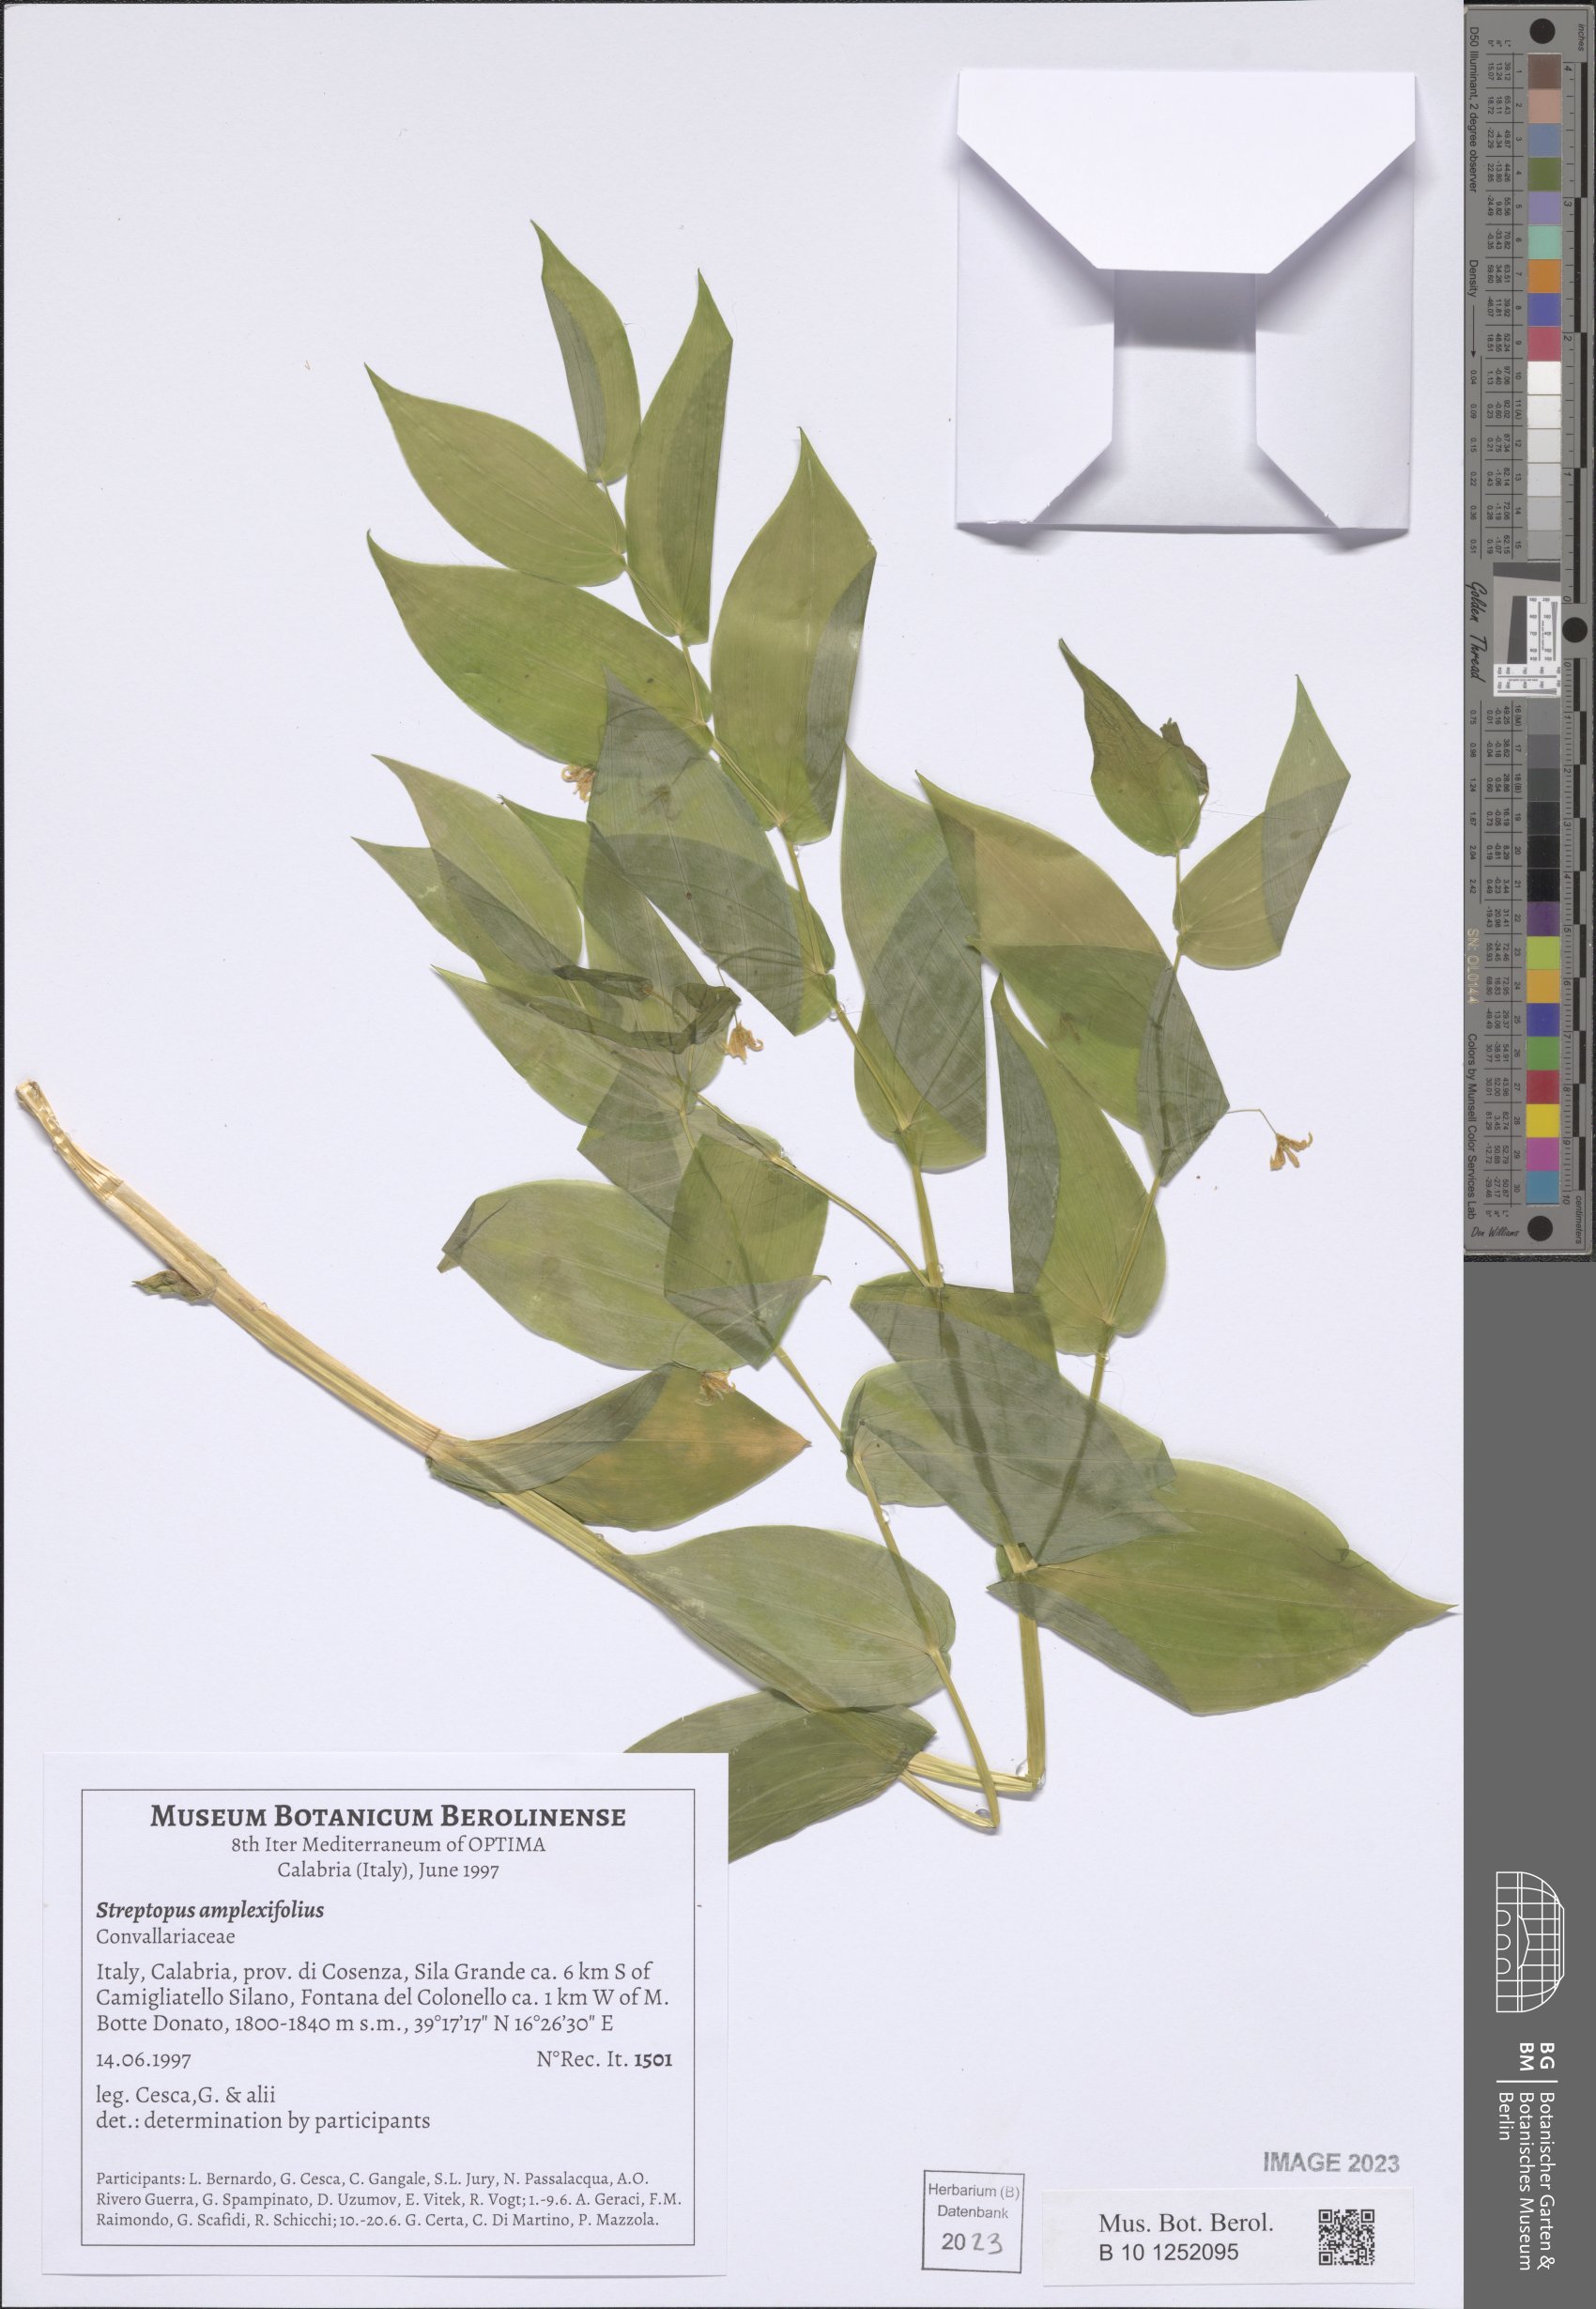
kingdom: Plantae
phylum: Tracheophyta
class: Liliopsida
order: Liliales
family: Liliaceae
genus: Streptopus
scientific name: Streptopus amplexifolius
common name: Clasp twisted stalk
